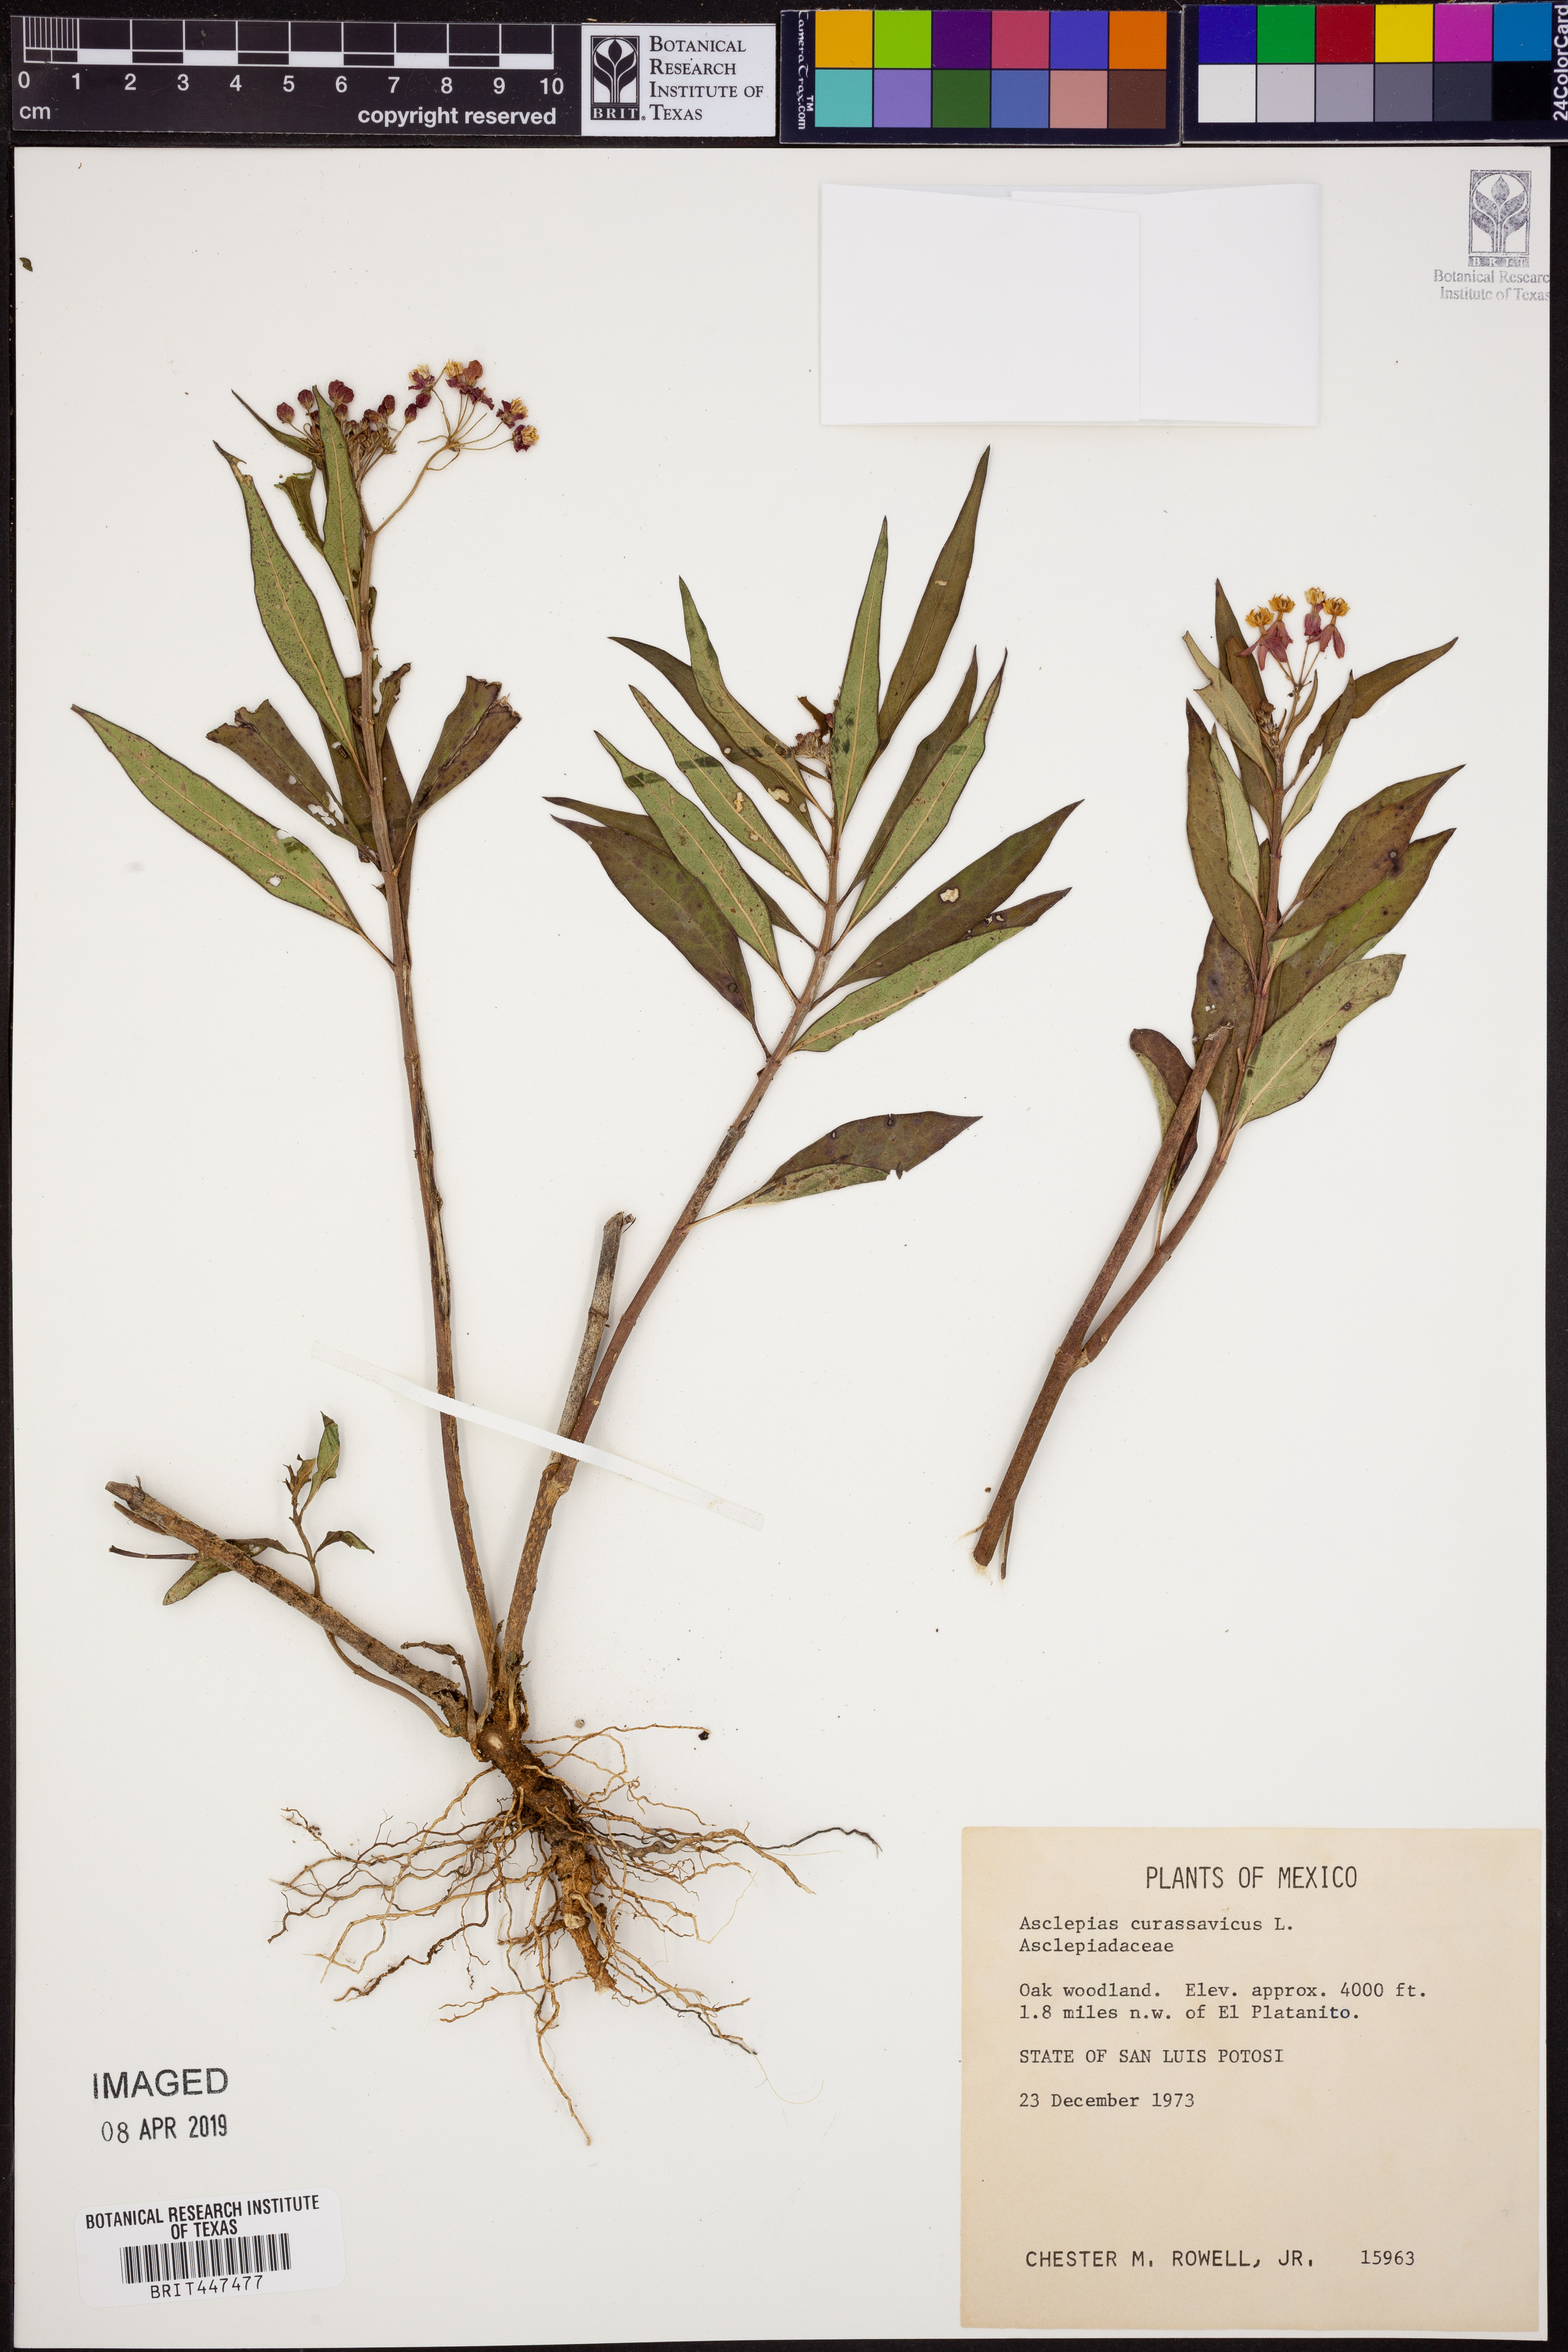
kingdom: Plantae
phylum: Tracheophyta
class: Magnoliopsida
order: Gentianales
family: Apocynaceae
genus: Asclepias
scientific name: Asclepias curassavica
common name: Bloodflower
